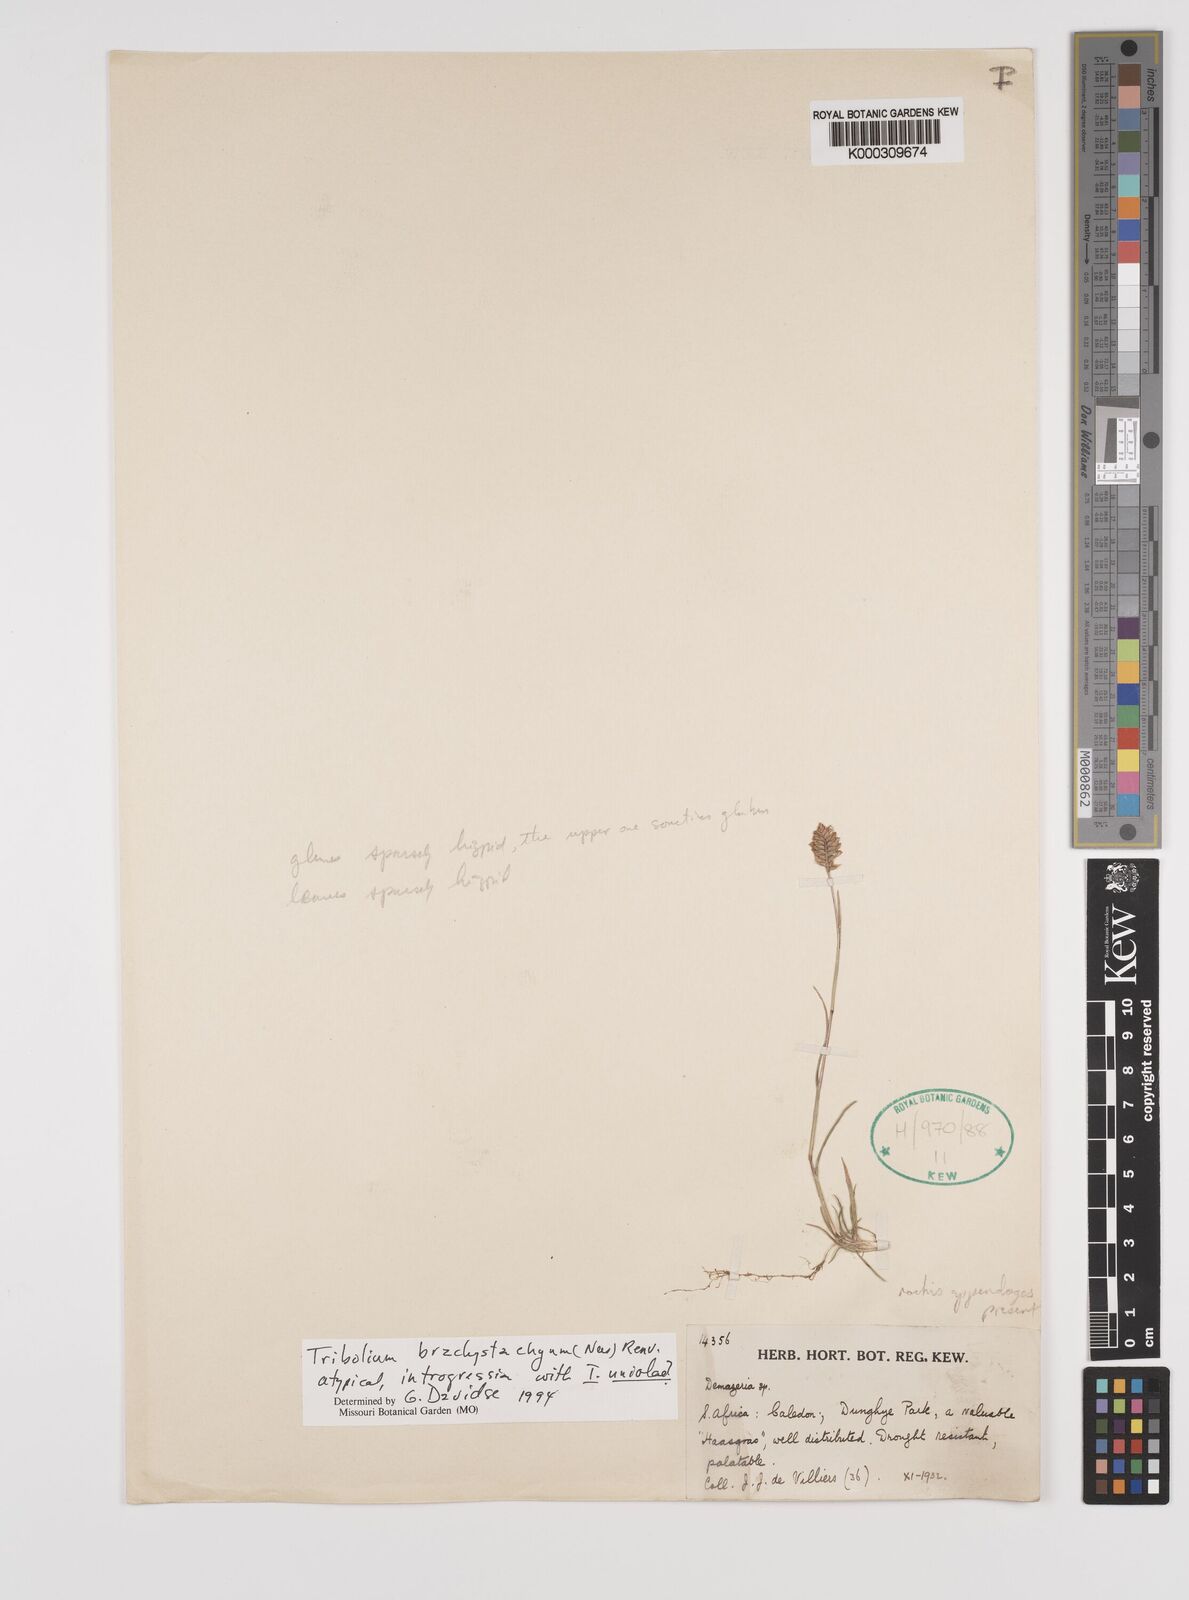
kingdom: Plantae
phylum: Tracheophyta
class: Liliopsida
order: Poales
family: Poaceae
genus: Tribolium
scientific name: Tribolium brachystachyum
